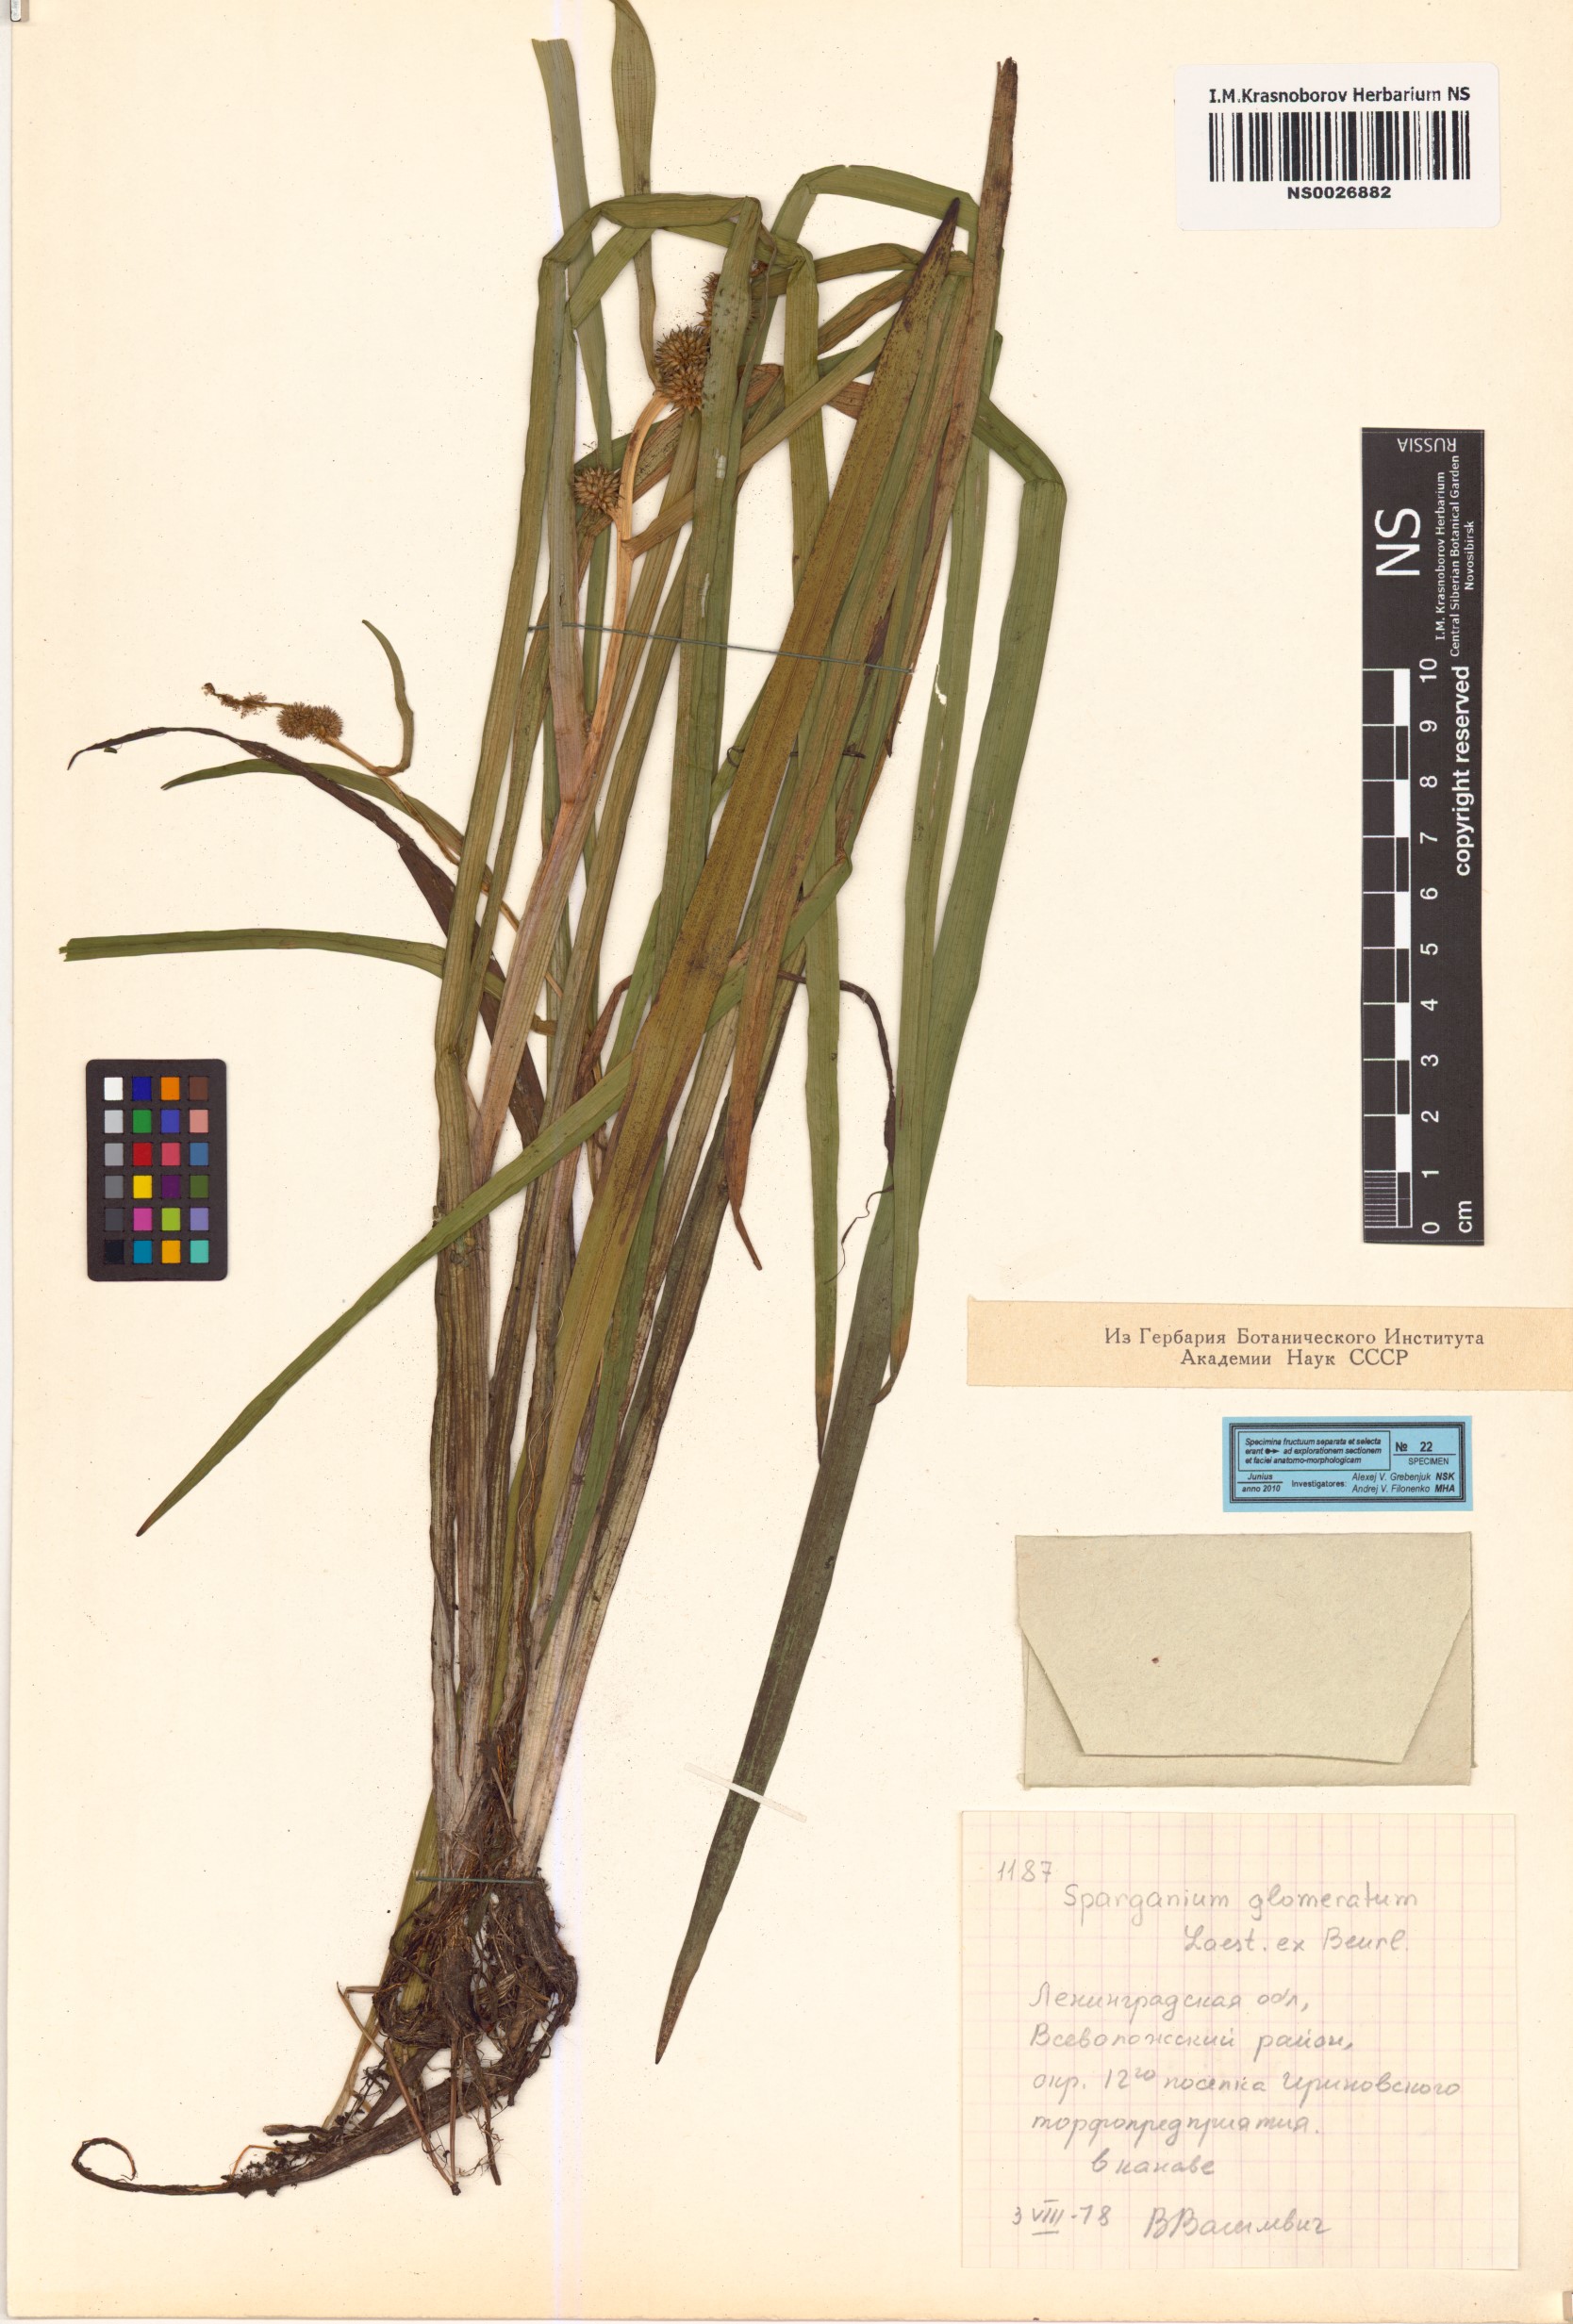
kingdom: Plantae
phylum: Tracheophyta
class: Liliopsida
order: Poales
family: Typhaceae
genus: Sparganium
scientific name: Sparganium glomeratum
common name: Clustered burreed
